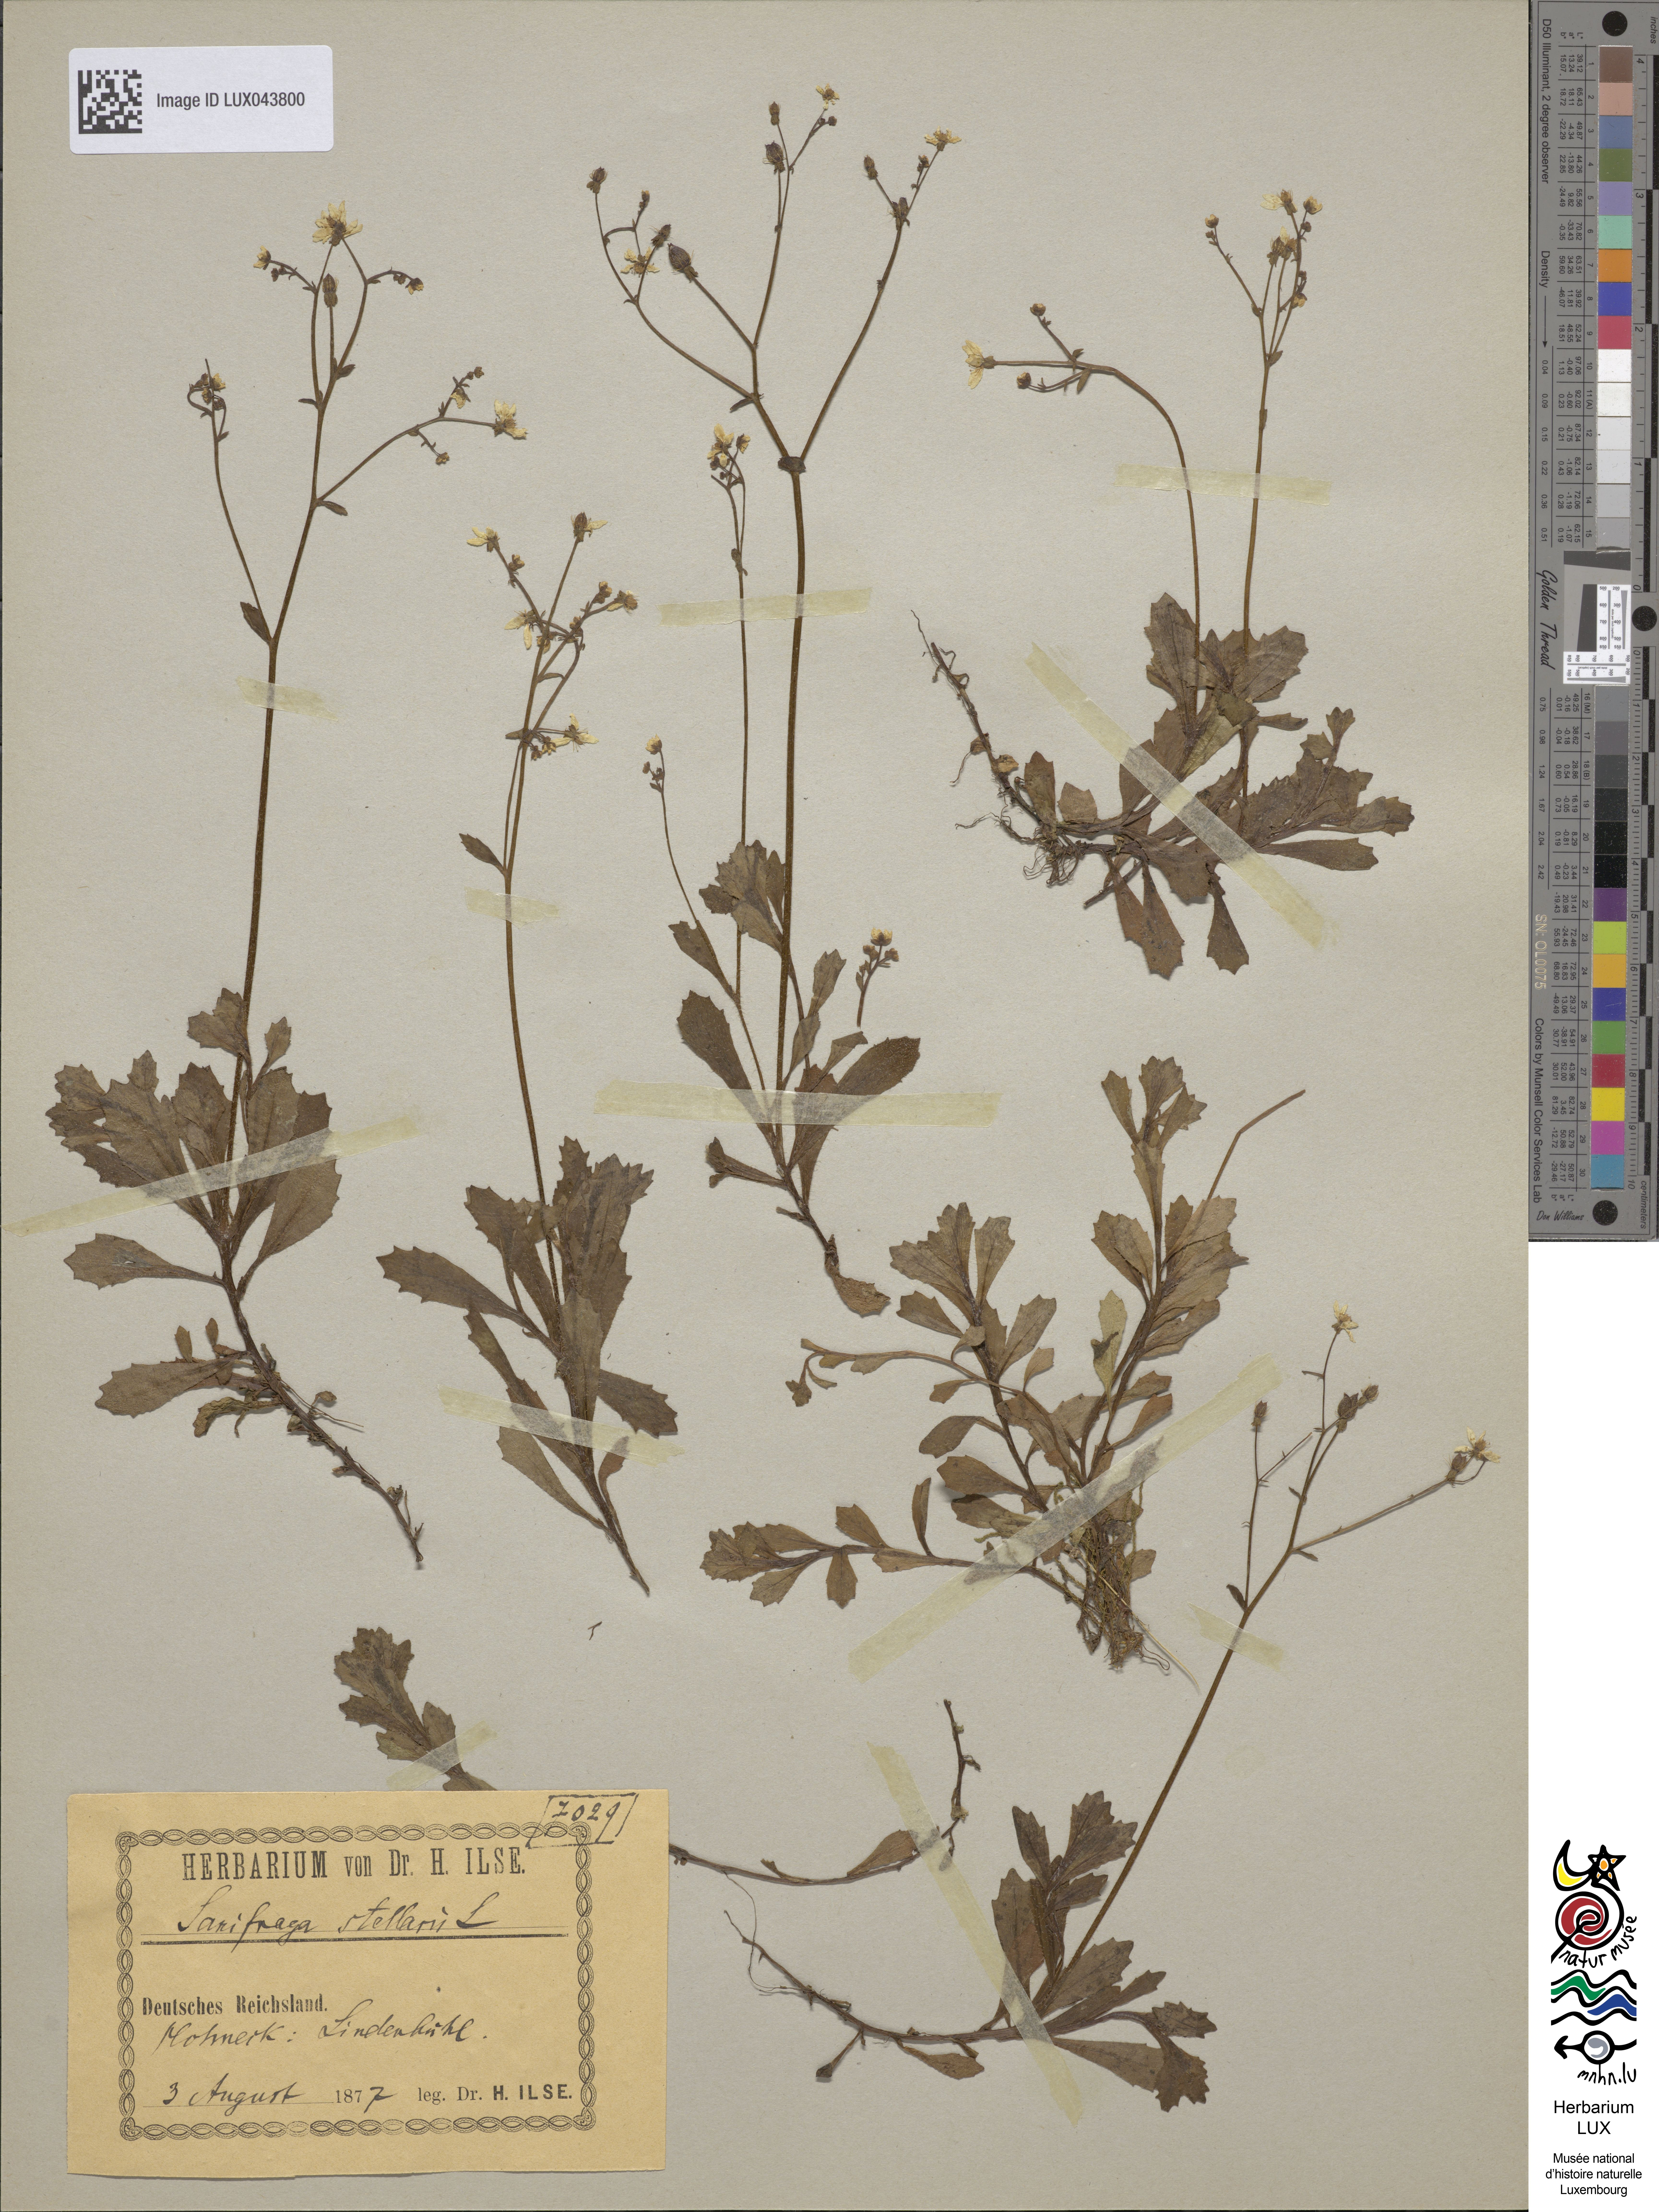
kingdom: Plantae
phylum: Tracheophyta
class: Magnoliopsida
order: Saxifragales
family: Saxifragaceae
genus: Micranthes
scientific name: Micranthes stellaris
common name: Starry saxifrage
